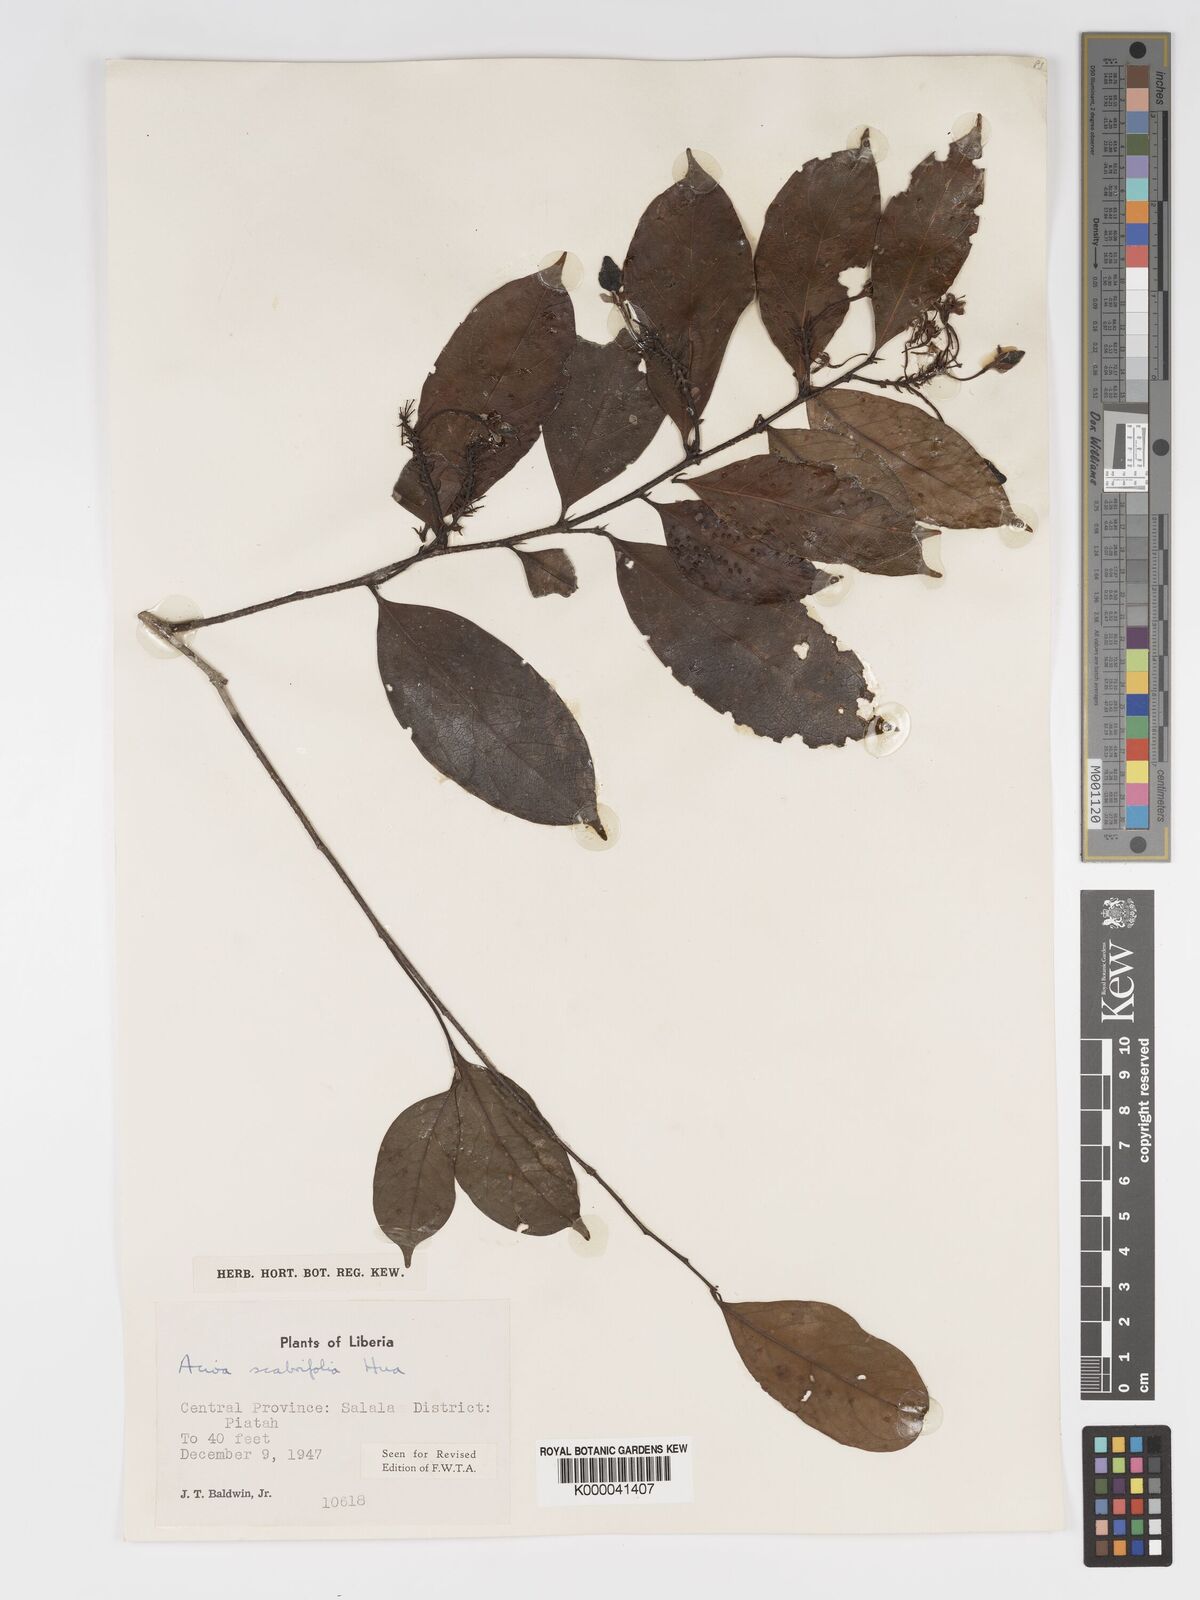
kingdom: Plantae
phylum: Tracheophyta
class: Magnoliopsida
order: Malpighiales
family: Chrysobalanaceae
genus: Dactyladenia
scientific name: Dactyladenia scabrifolia
